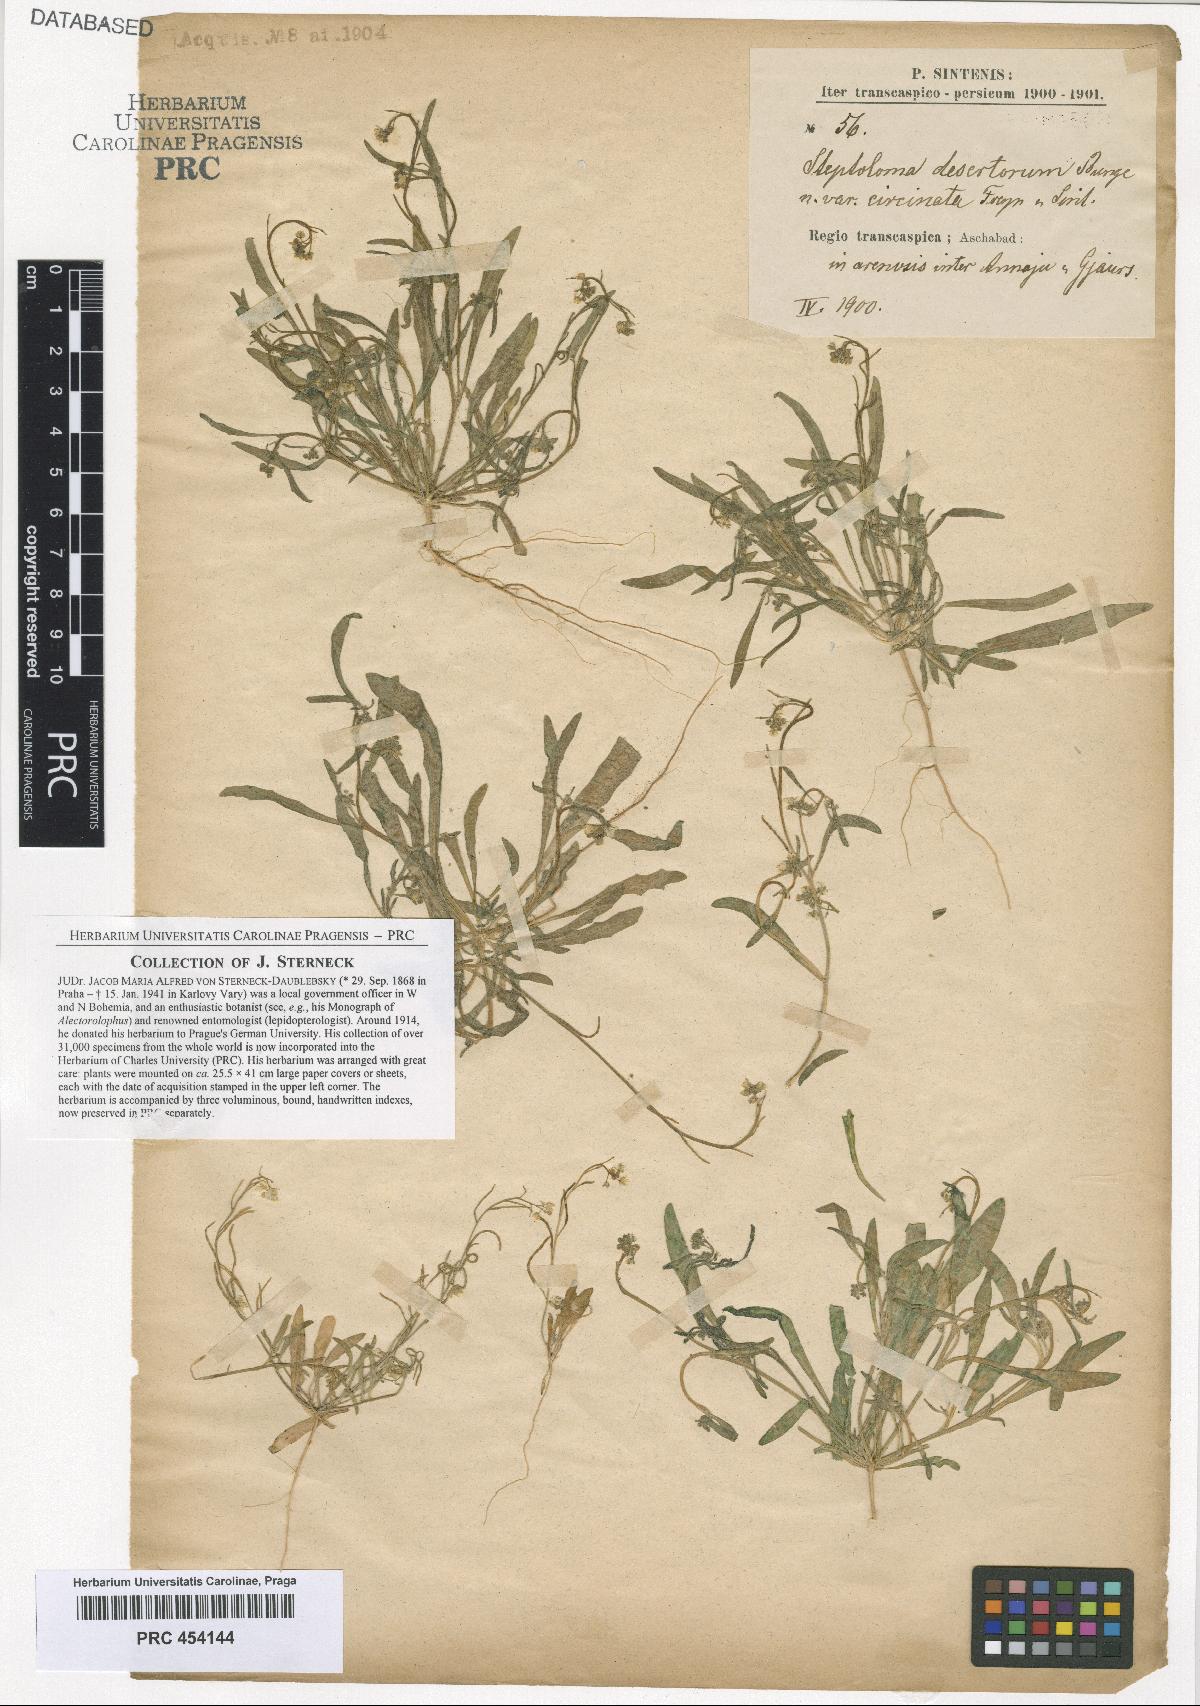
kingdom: Plantae
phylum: Tracheophyta
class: Magnoliopsida
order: Brassicales
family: Brassicaceae
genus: Streptoloma
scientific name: Streptoloma desertorum
